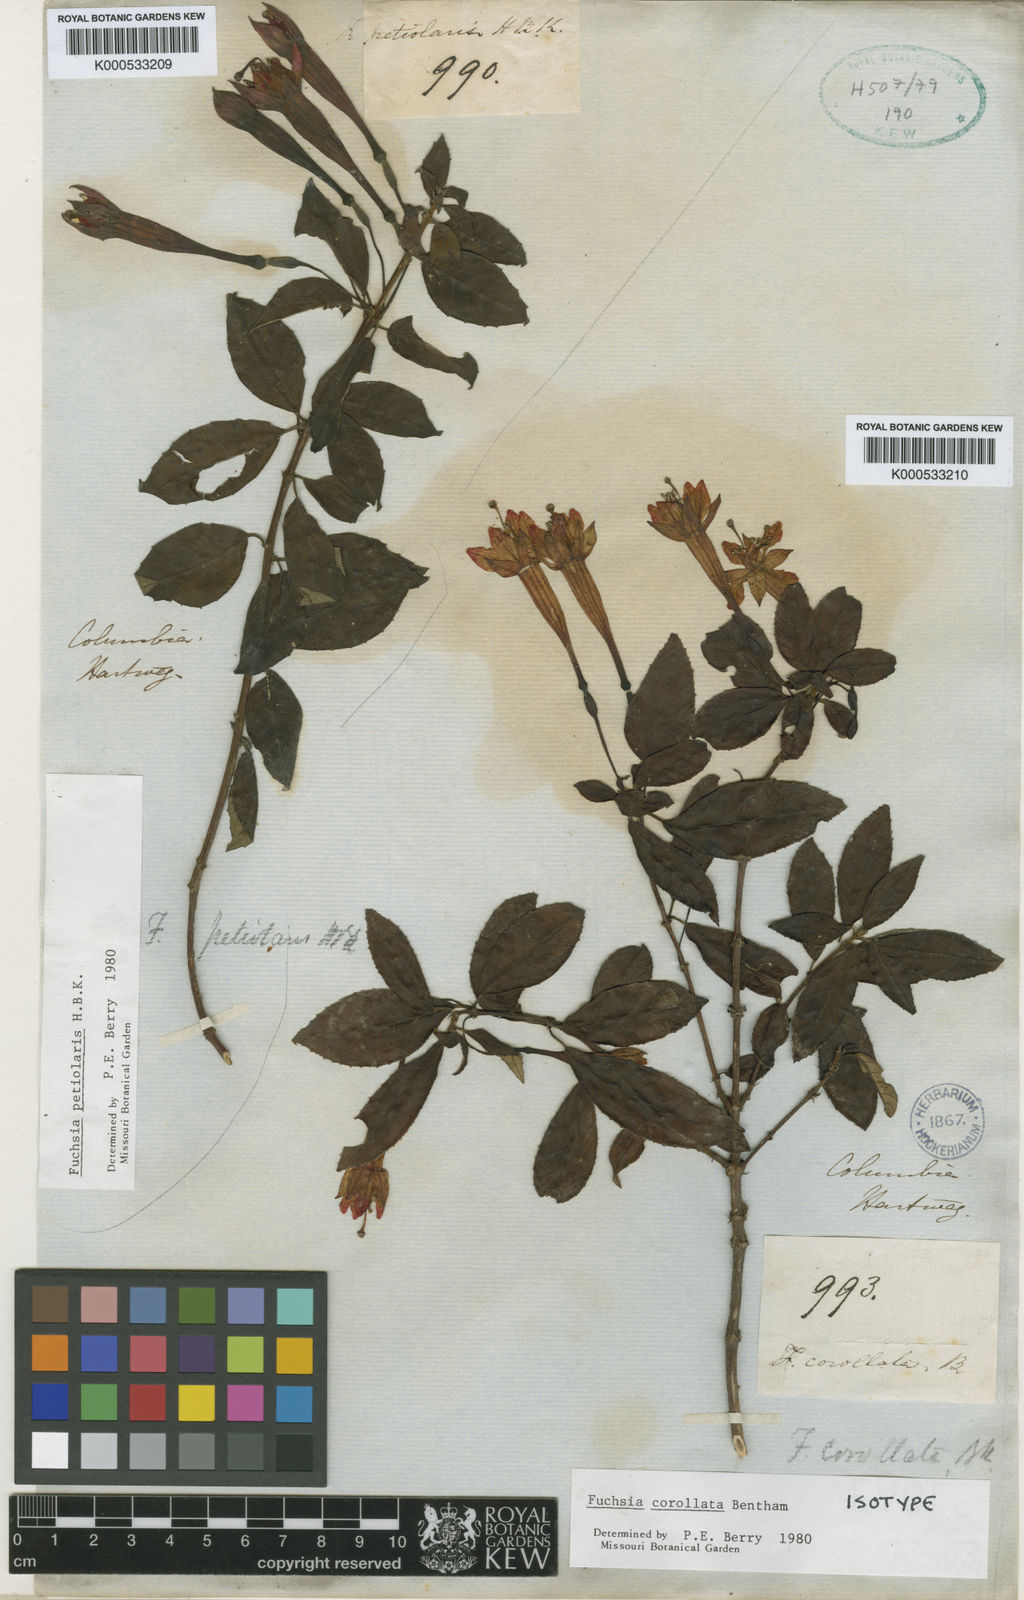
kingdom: Plantae
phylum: Tracheophyta
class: Magnoliopsida
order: Myrtales
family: Onagraceae
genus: Fuchsia
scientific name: Fuchsia corollata
